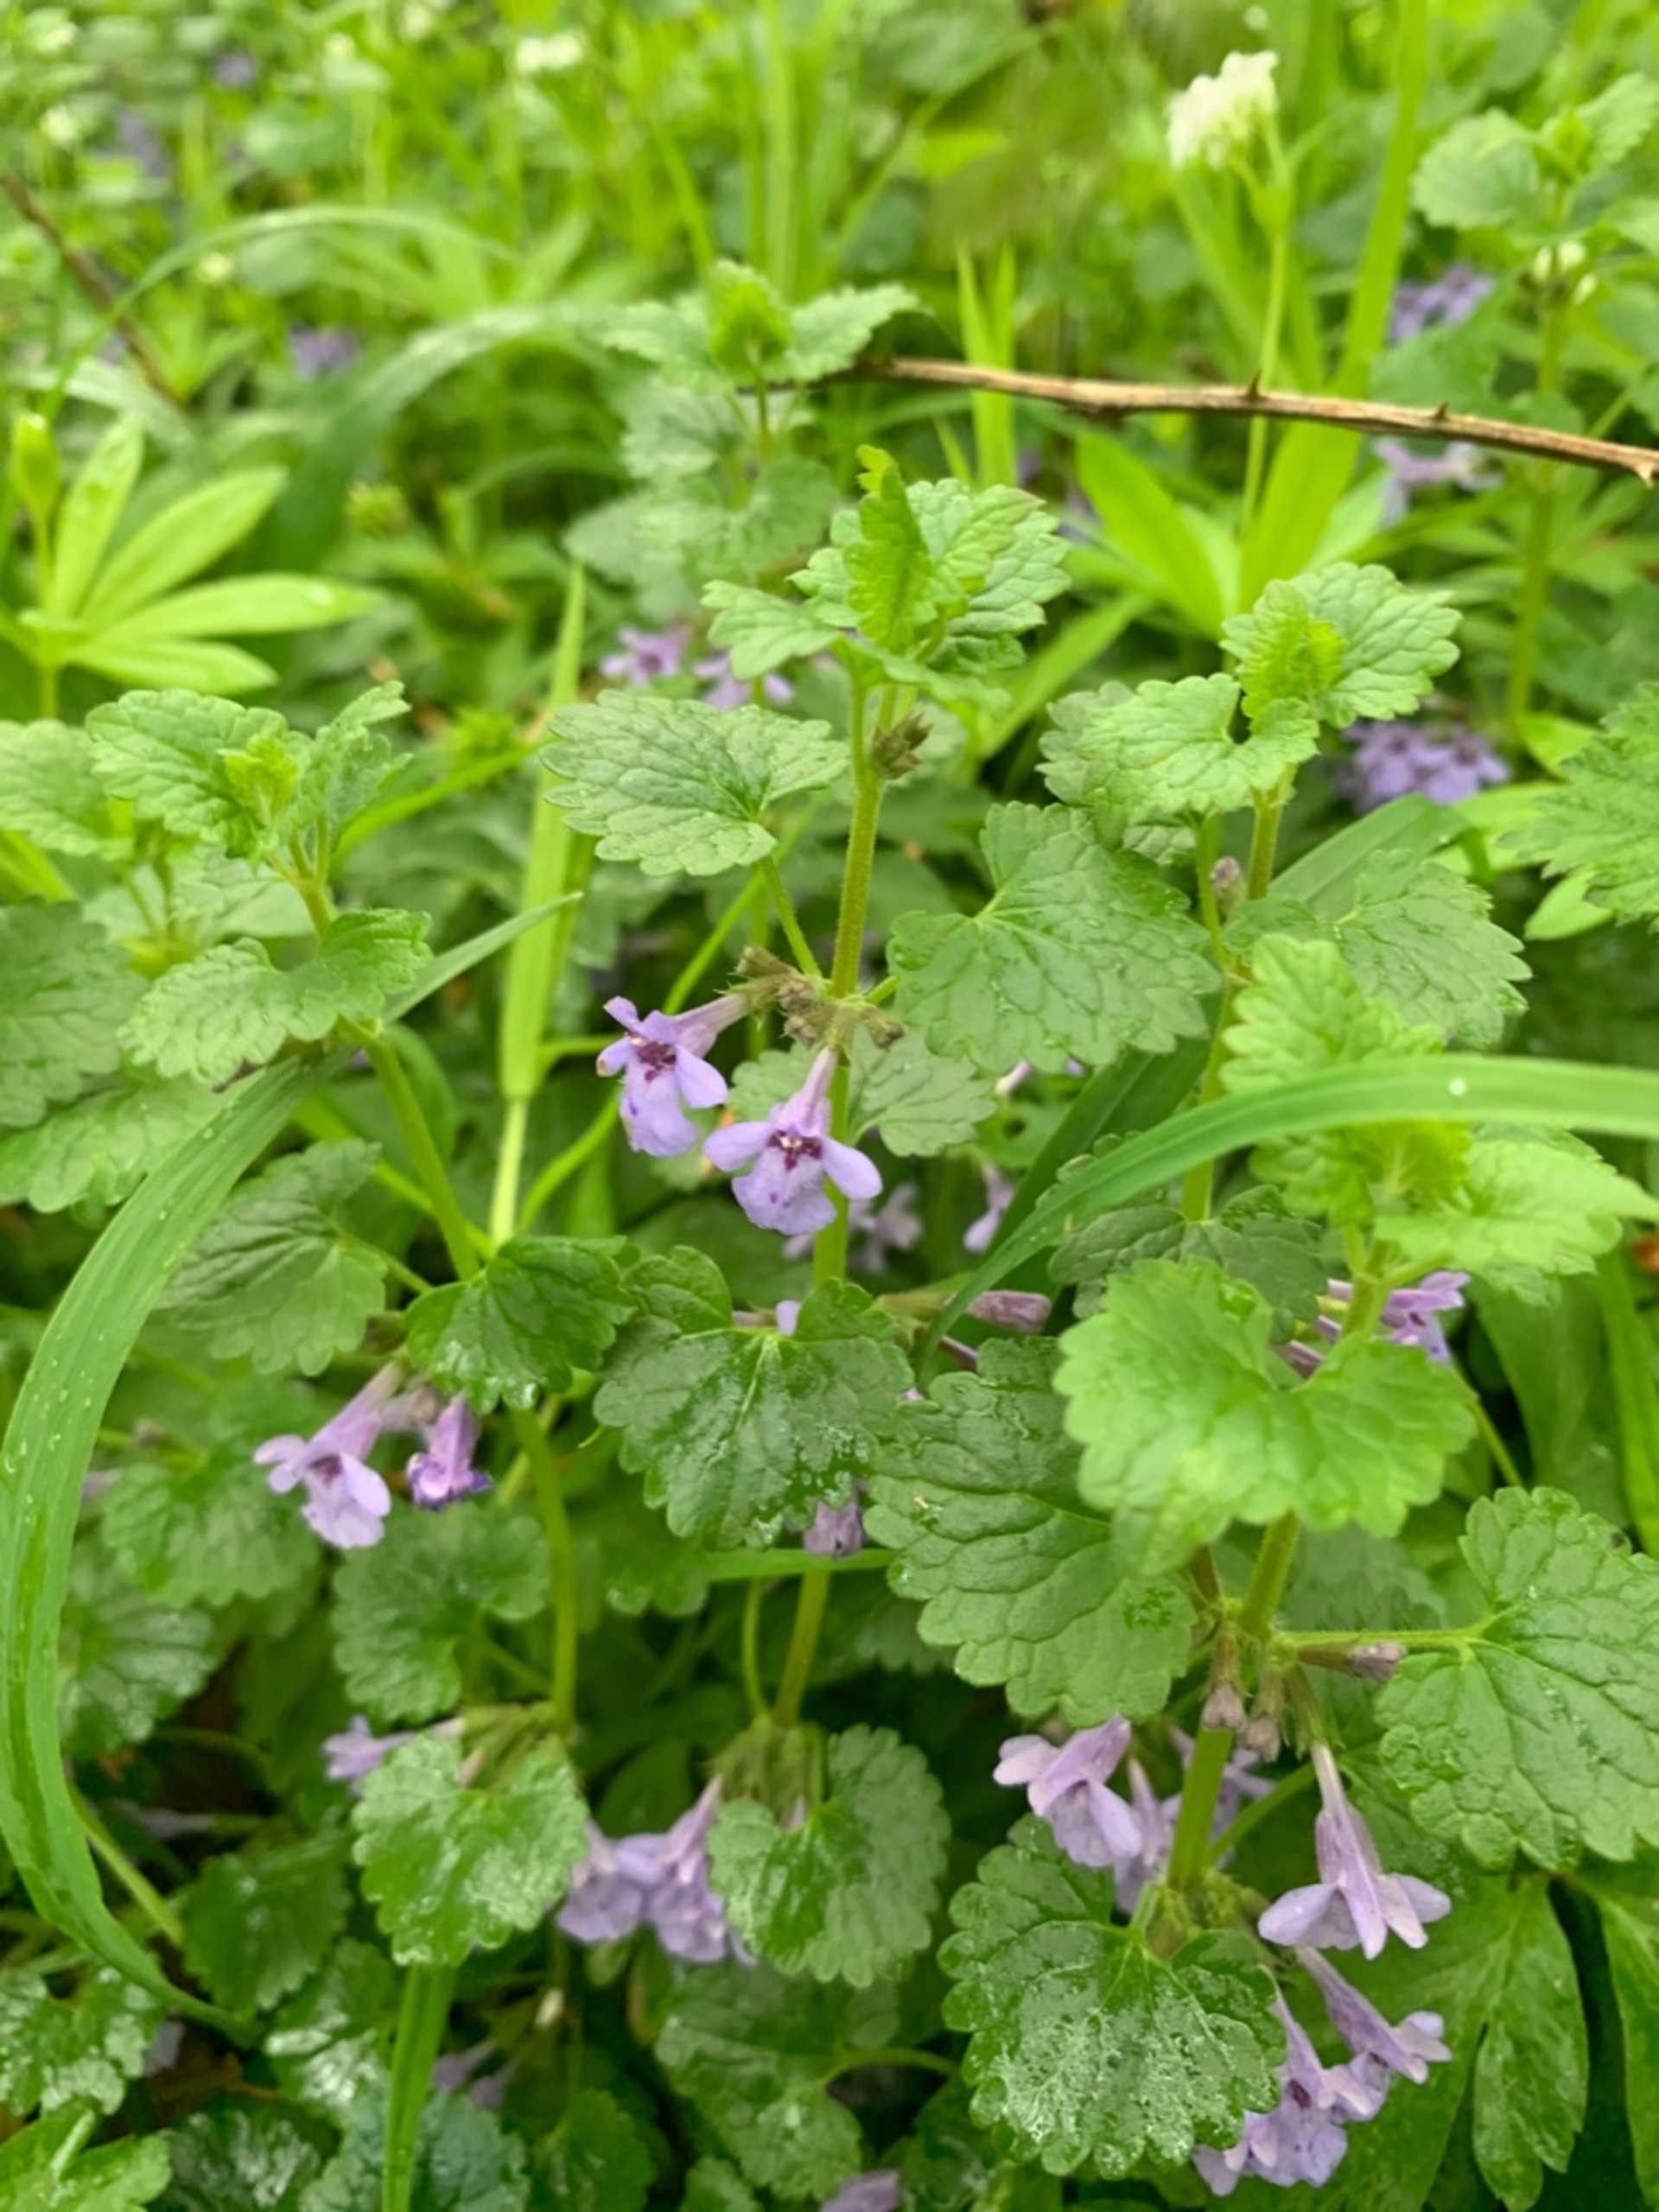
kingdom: Plantae
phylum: Tracheophyta
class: Magnoliopsida
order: Lamiales
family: Lamiaceae
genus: Glechoma
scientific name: Glechoma hederacea
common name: Korsknap
